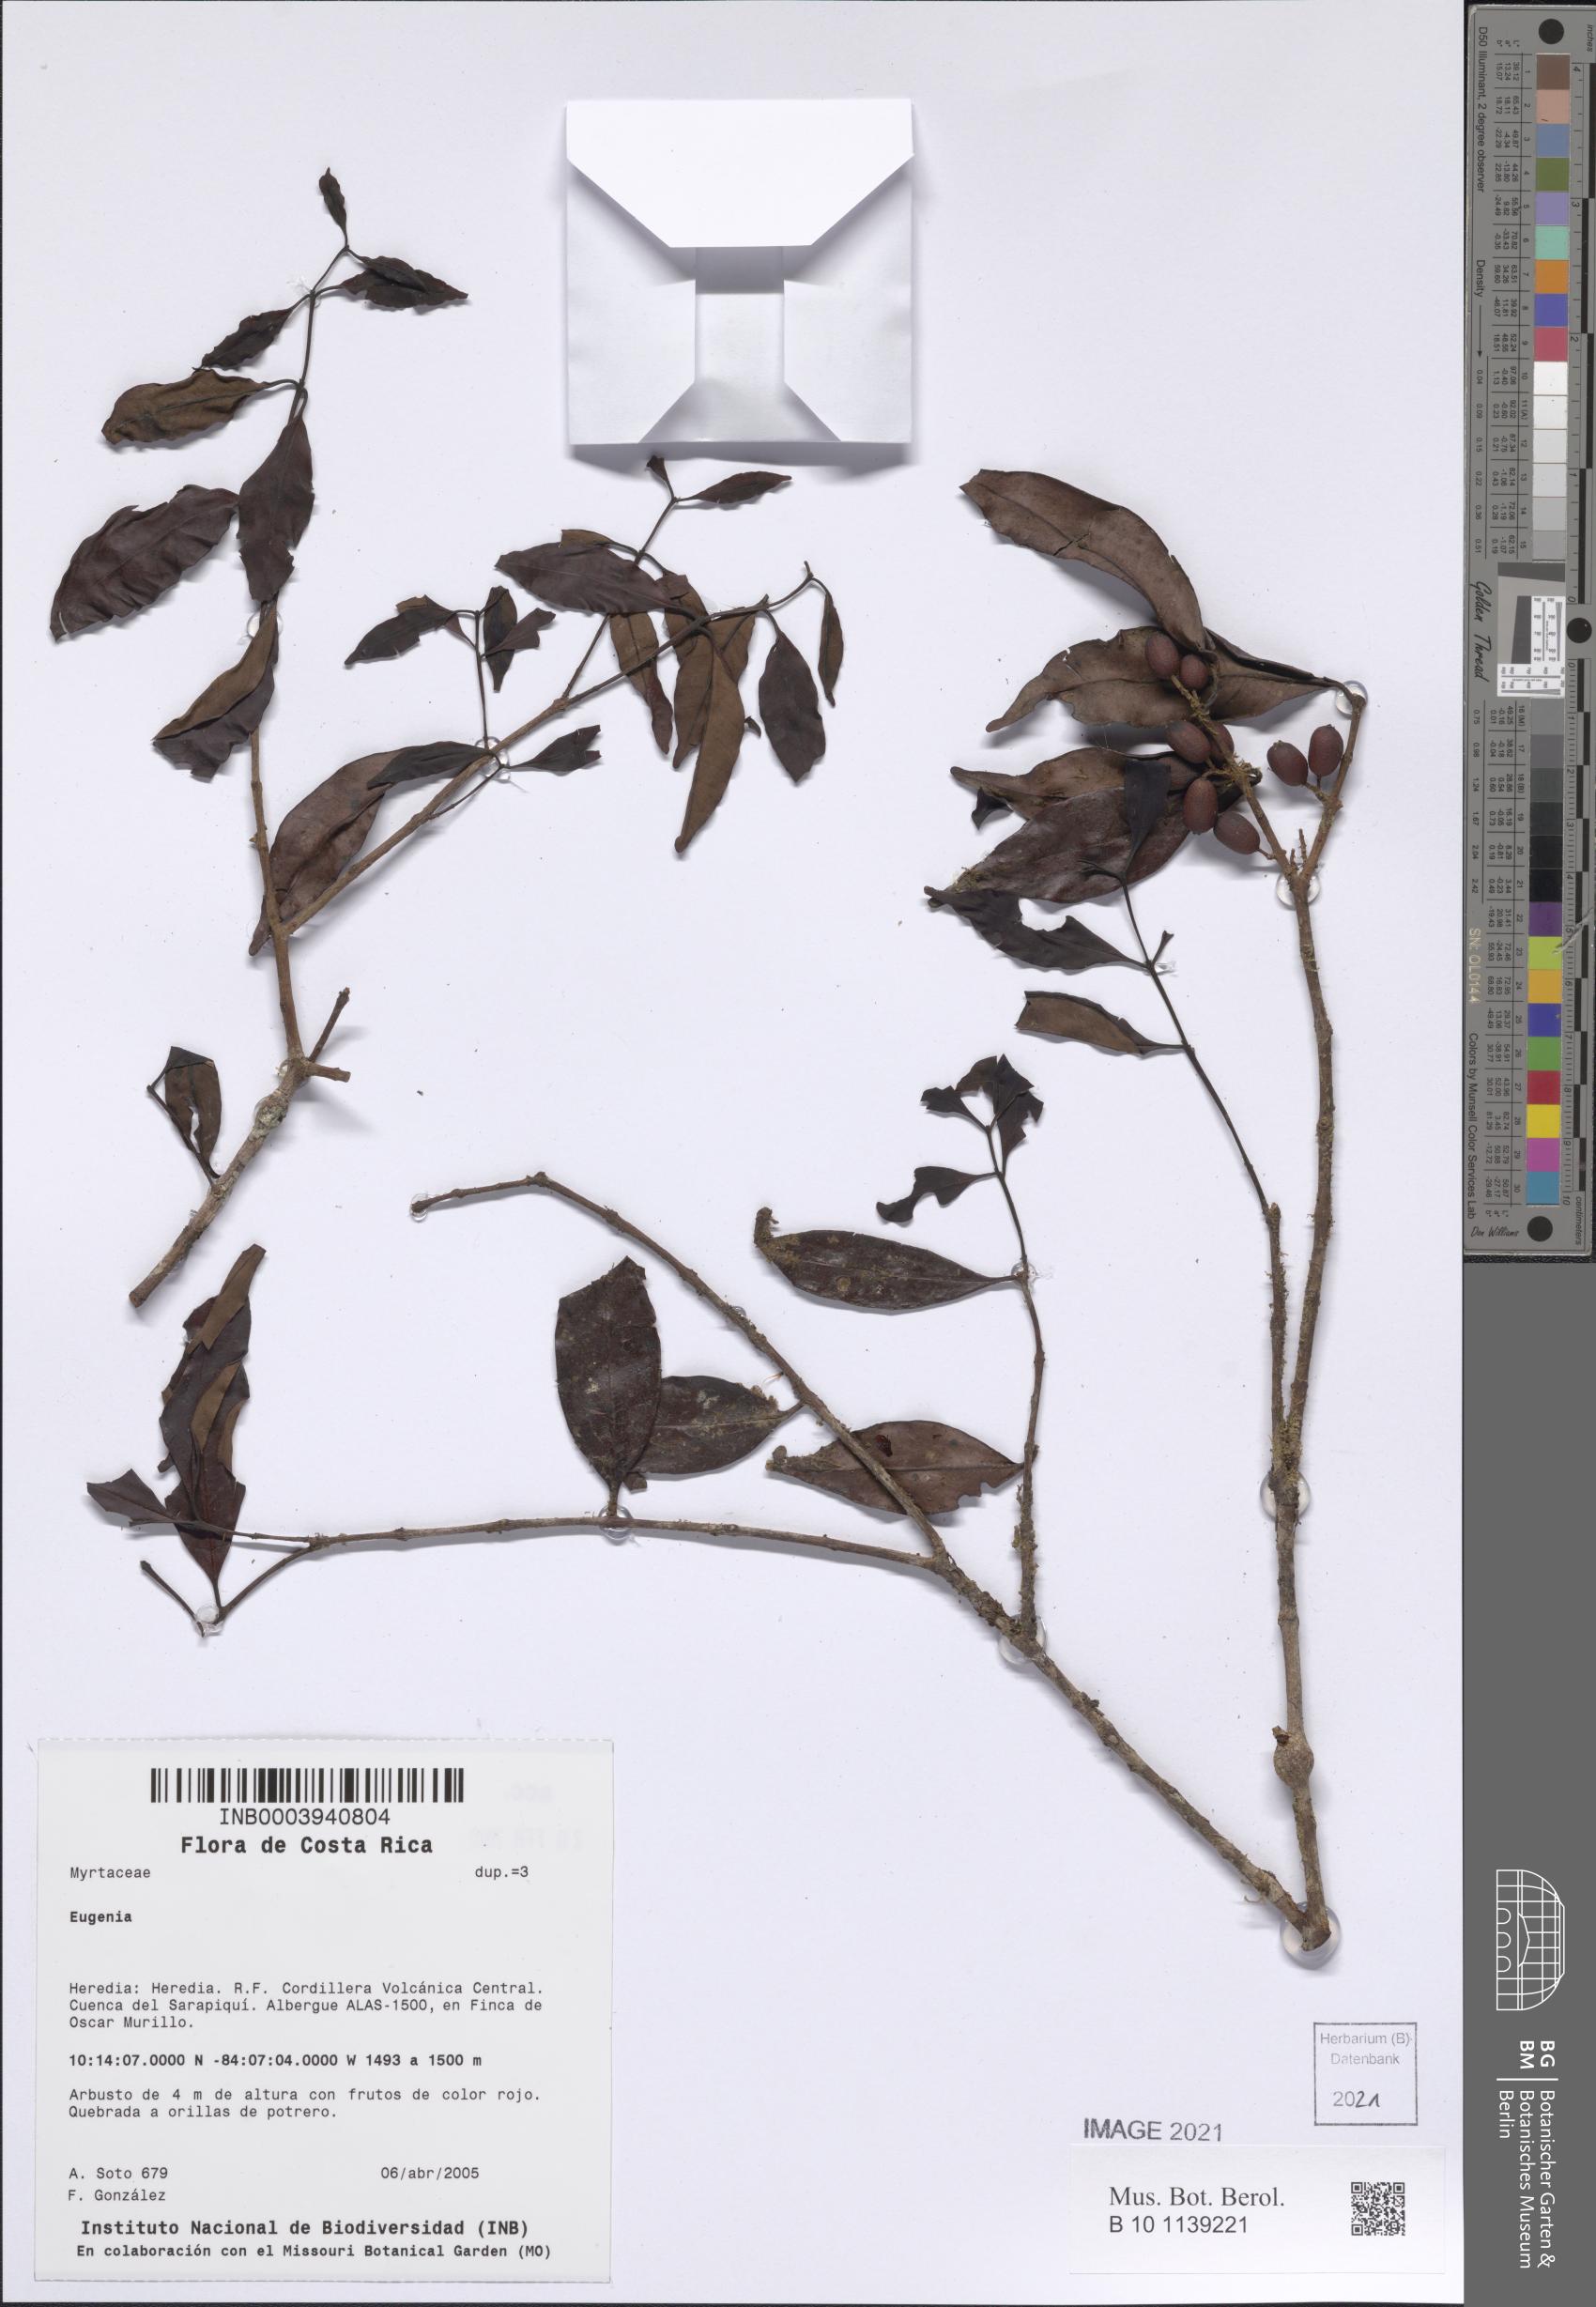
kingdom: Plantae
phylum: Tracheophyta
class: Magnoliopsida
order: Myrtales
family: Myrtaceae
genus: Eugenia
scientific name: Eugenia
